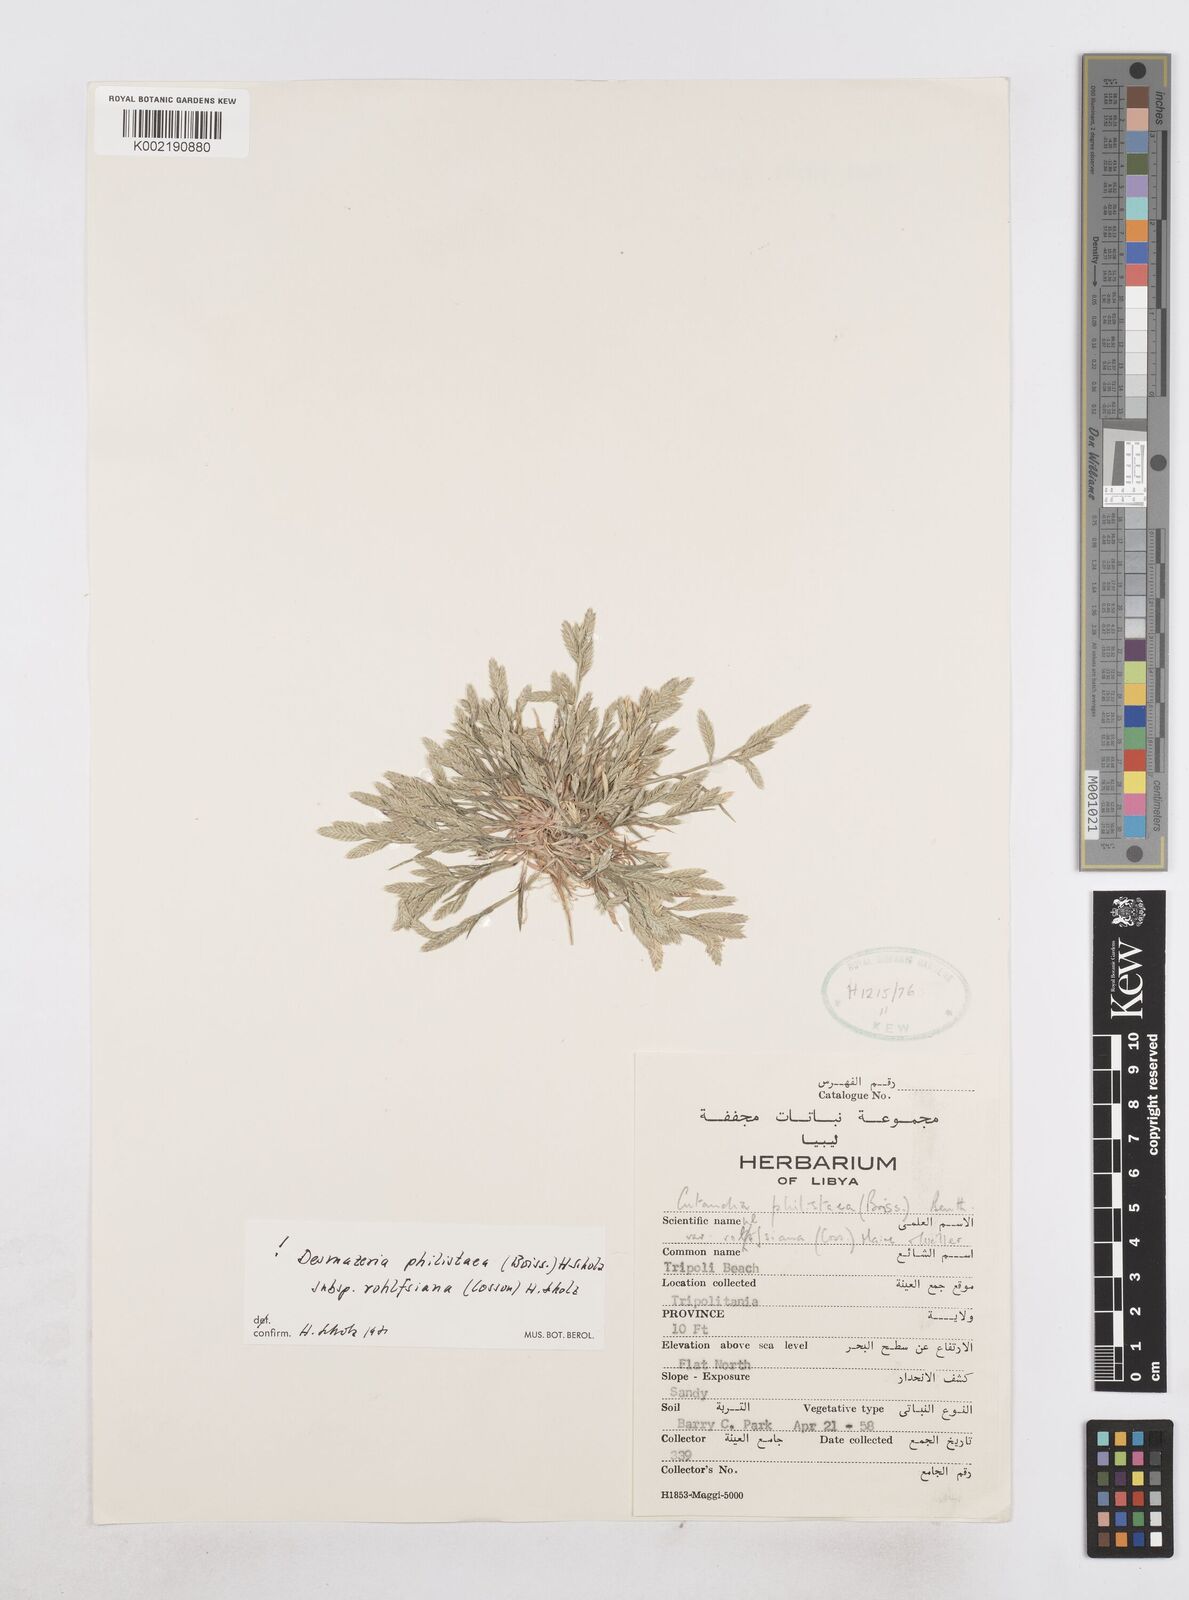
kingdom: Plantae
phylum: Tracheophyta
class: Liliopsida
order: Poales
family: Poaceae
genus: Desmazeria
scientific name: Desmazeria philistaea
